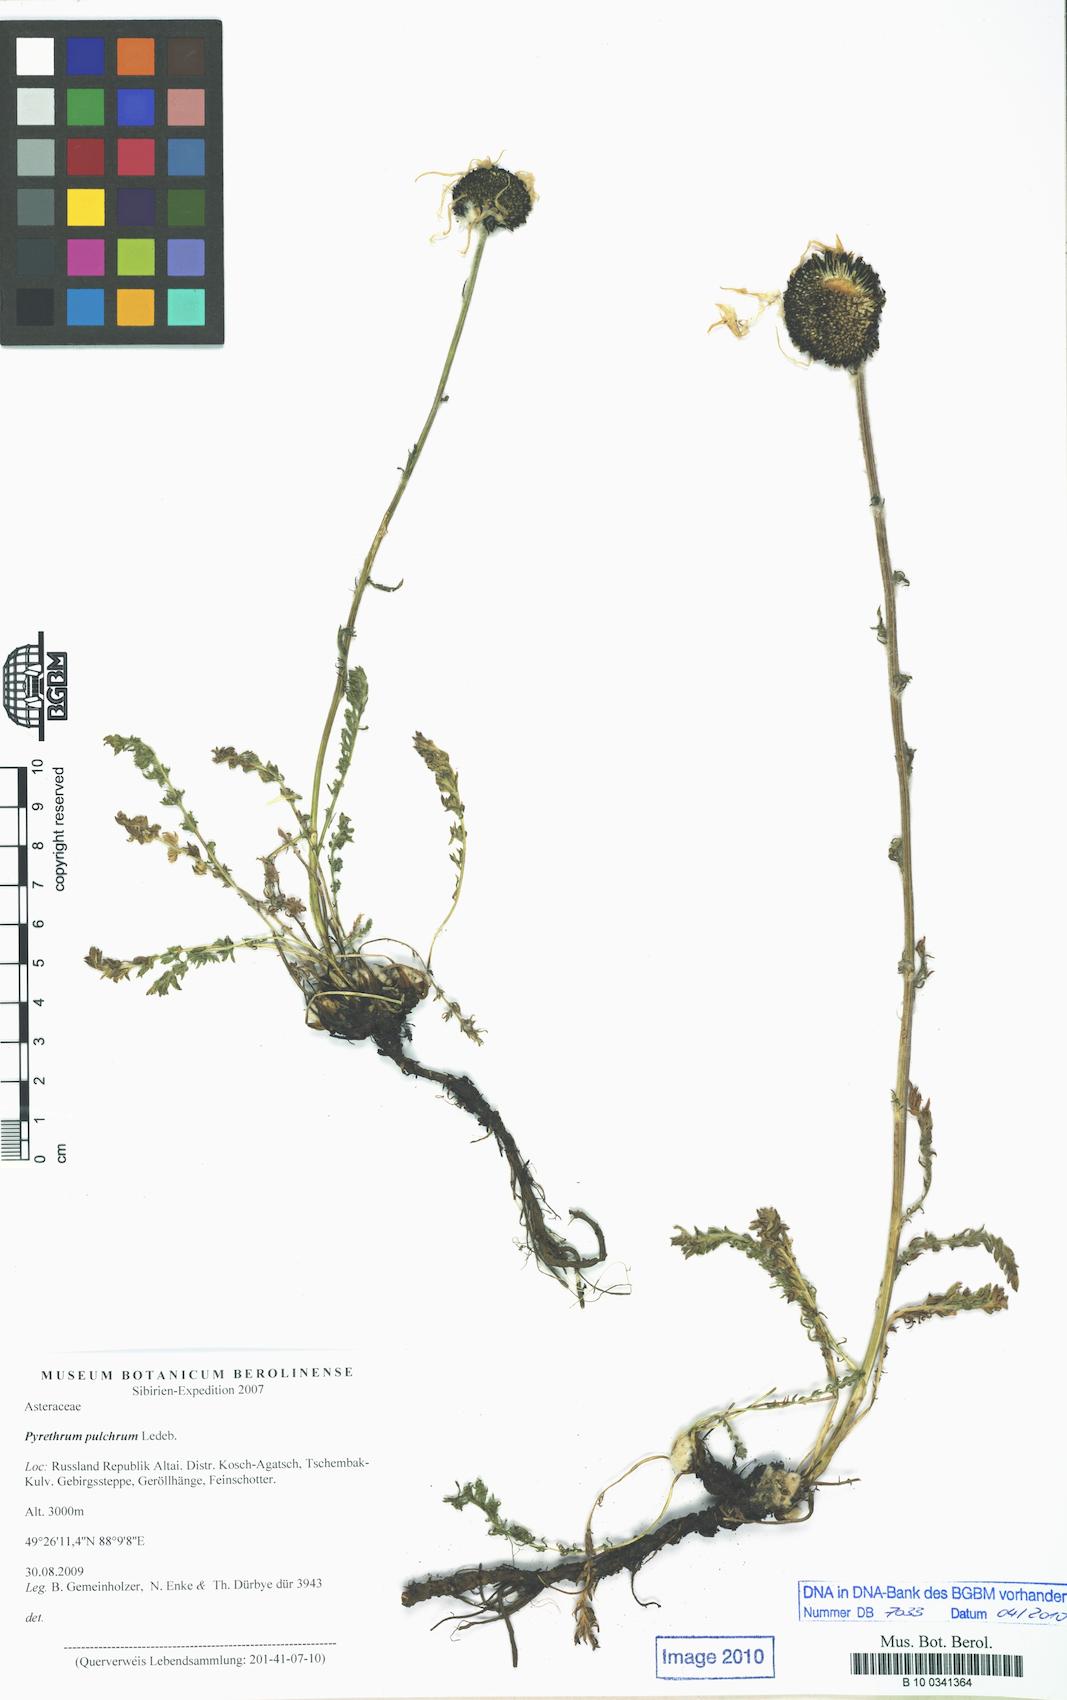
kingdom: Plantae
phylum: Tracheophyta
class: Magnoliopsida
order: Asterales
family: Asteraceae
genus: Tanacetum
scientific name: Tanacetum pulchrum
